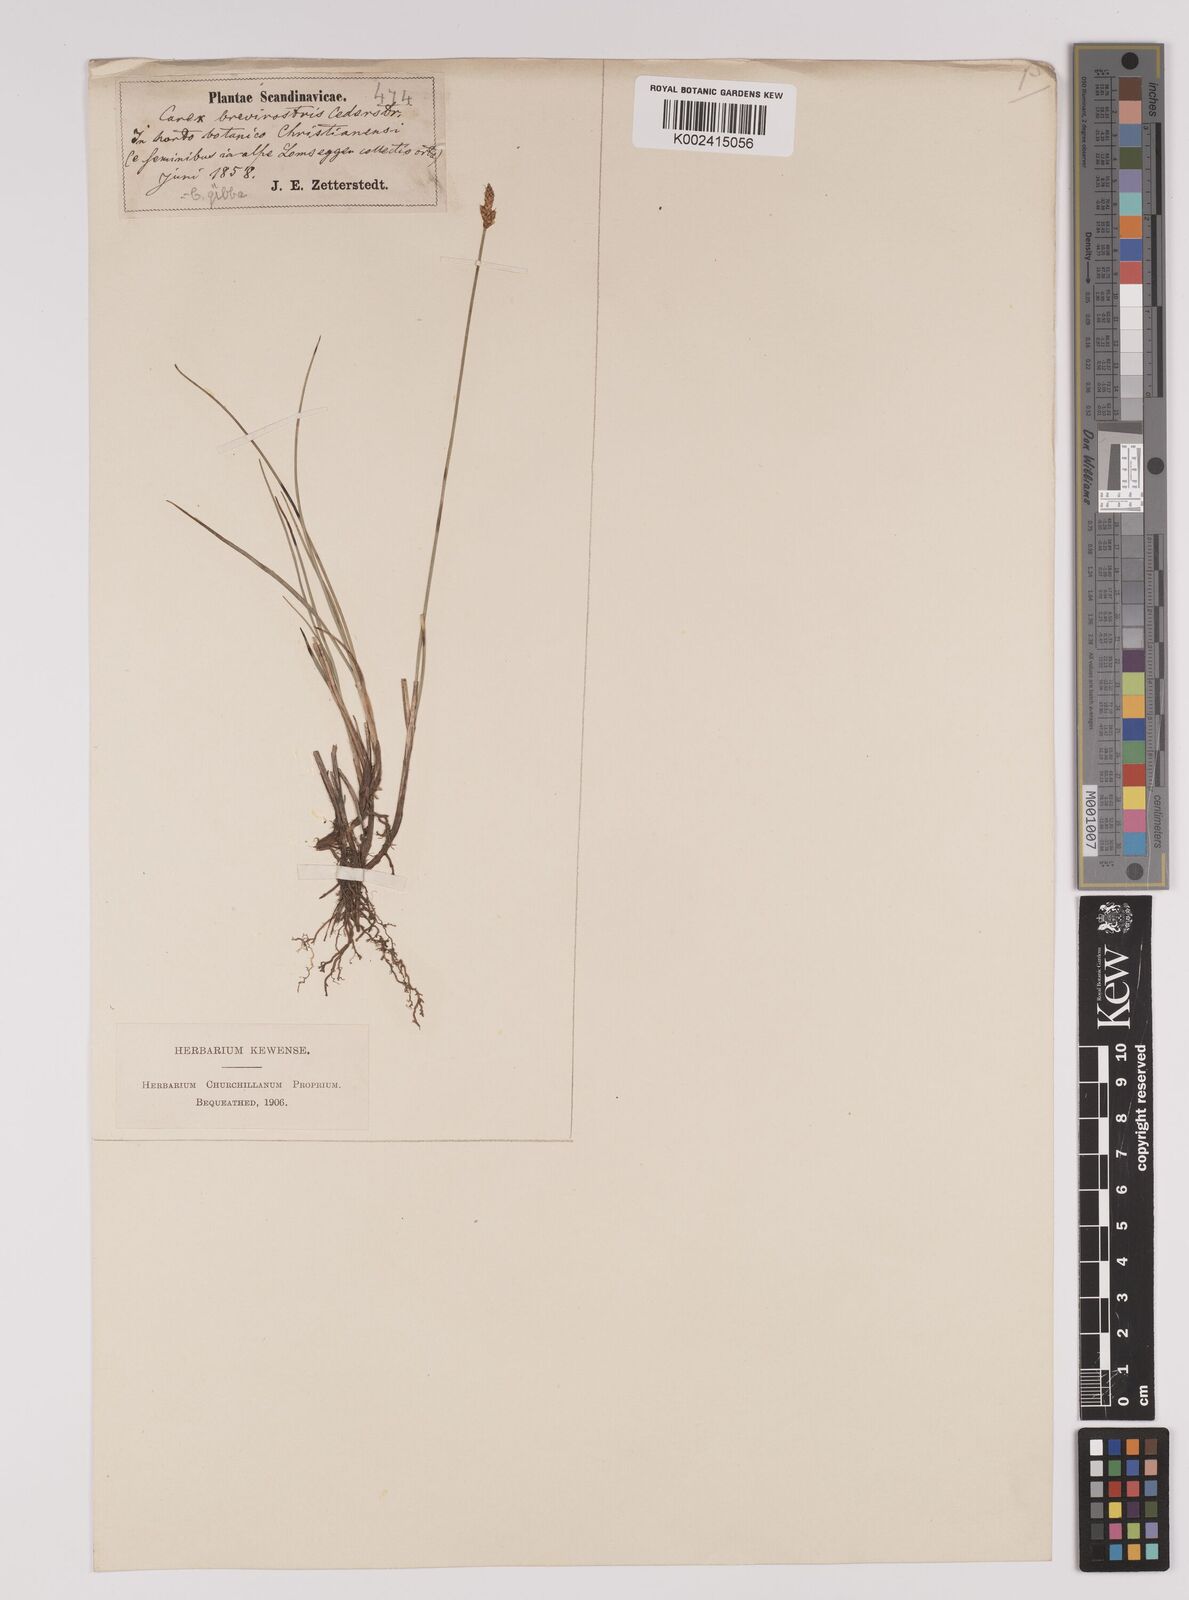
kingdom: Plantae
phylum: Tracheophyta
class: Liliopsida
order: Poales
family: Cyperaceae
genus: Carex
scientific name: Carex dioica
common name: Dioecious sedge
